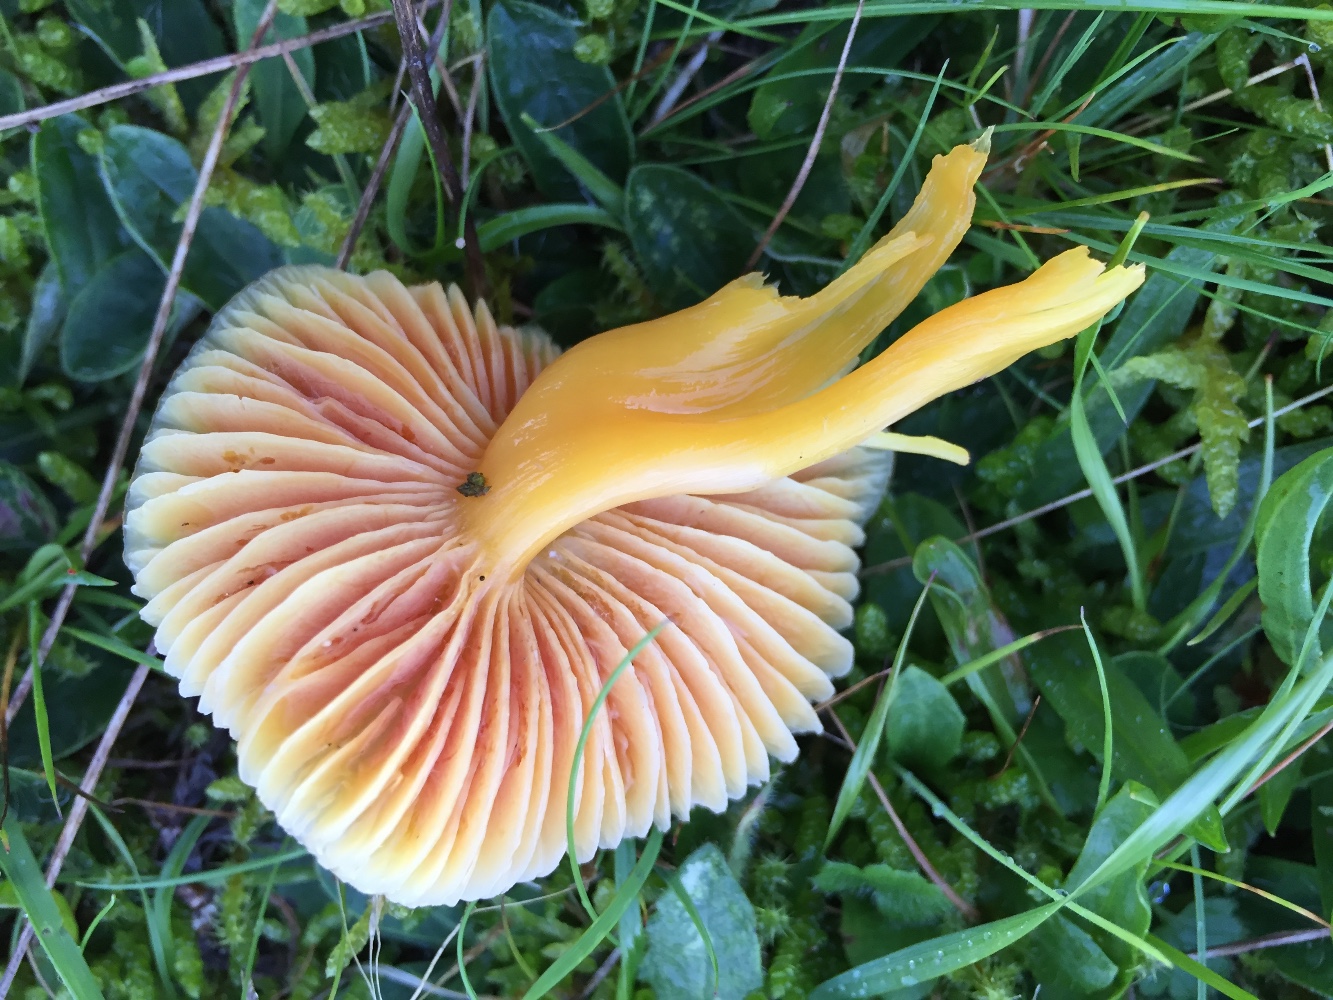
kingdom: Fungi
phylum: Basidiomycota
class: Agaricomycetes
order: Agaricales
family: Hygrophoraceae
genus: Hygrocybe
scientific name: Hygrocybe quieta
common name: tæge-vokshat
